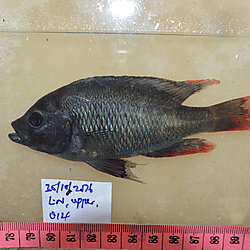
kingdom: Animalia
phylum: Chordata
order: Perciformes
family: Cichlidae
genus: Paralabidochromis
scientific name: Paralabidochromis
